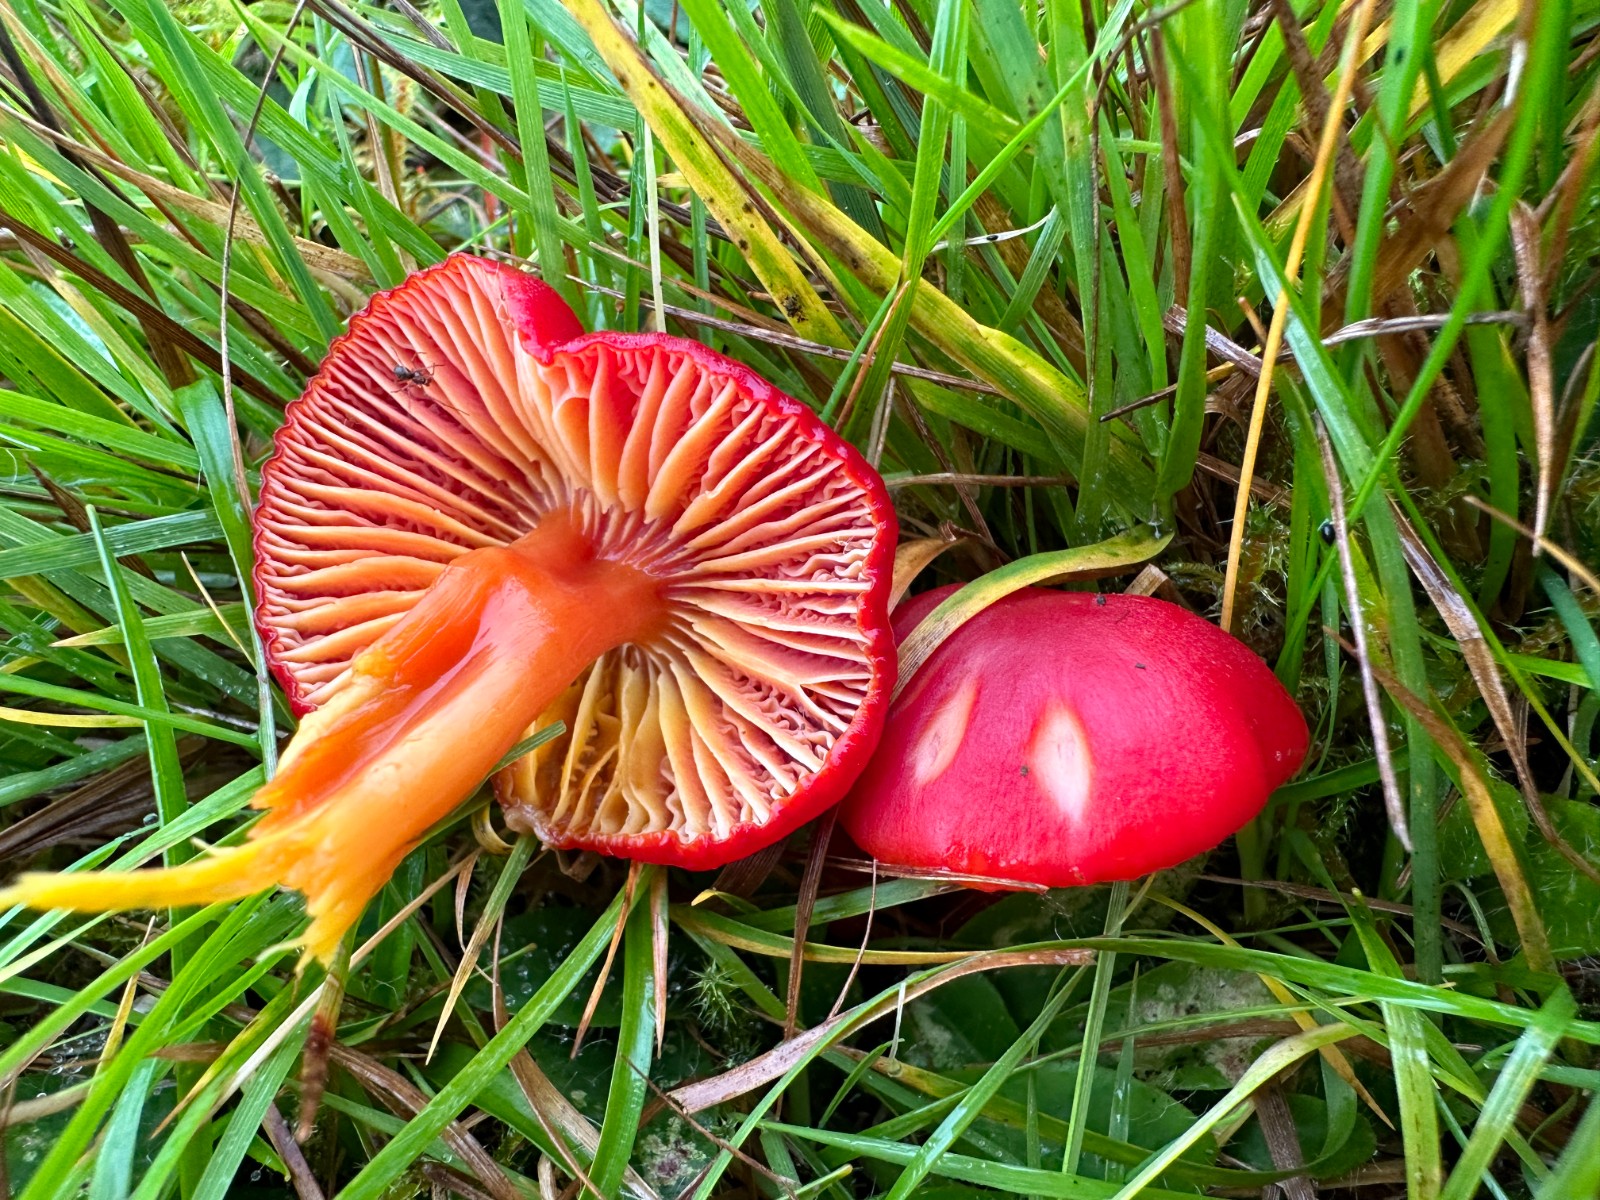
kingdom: Fungi
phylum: Basidiomycota
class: Agaricomycetes
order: Agaricales
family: Hygrophoraceae
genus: Hygrocybe
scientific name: Hygrocybe coccinea
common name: cinnober-vokshat
